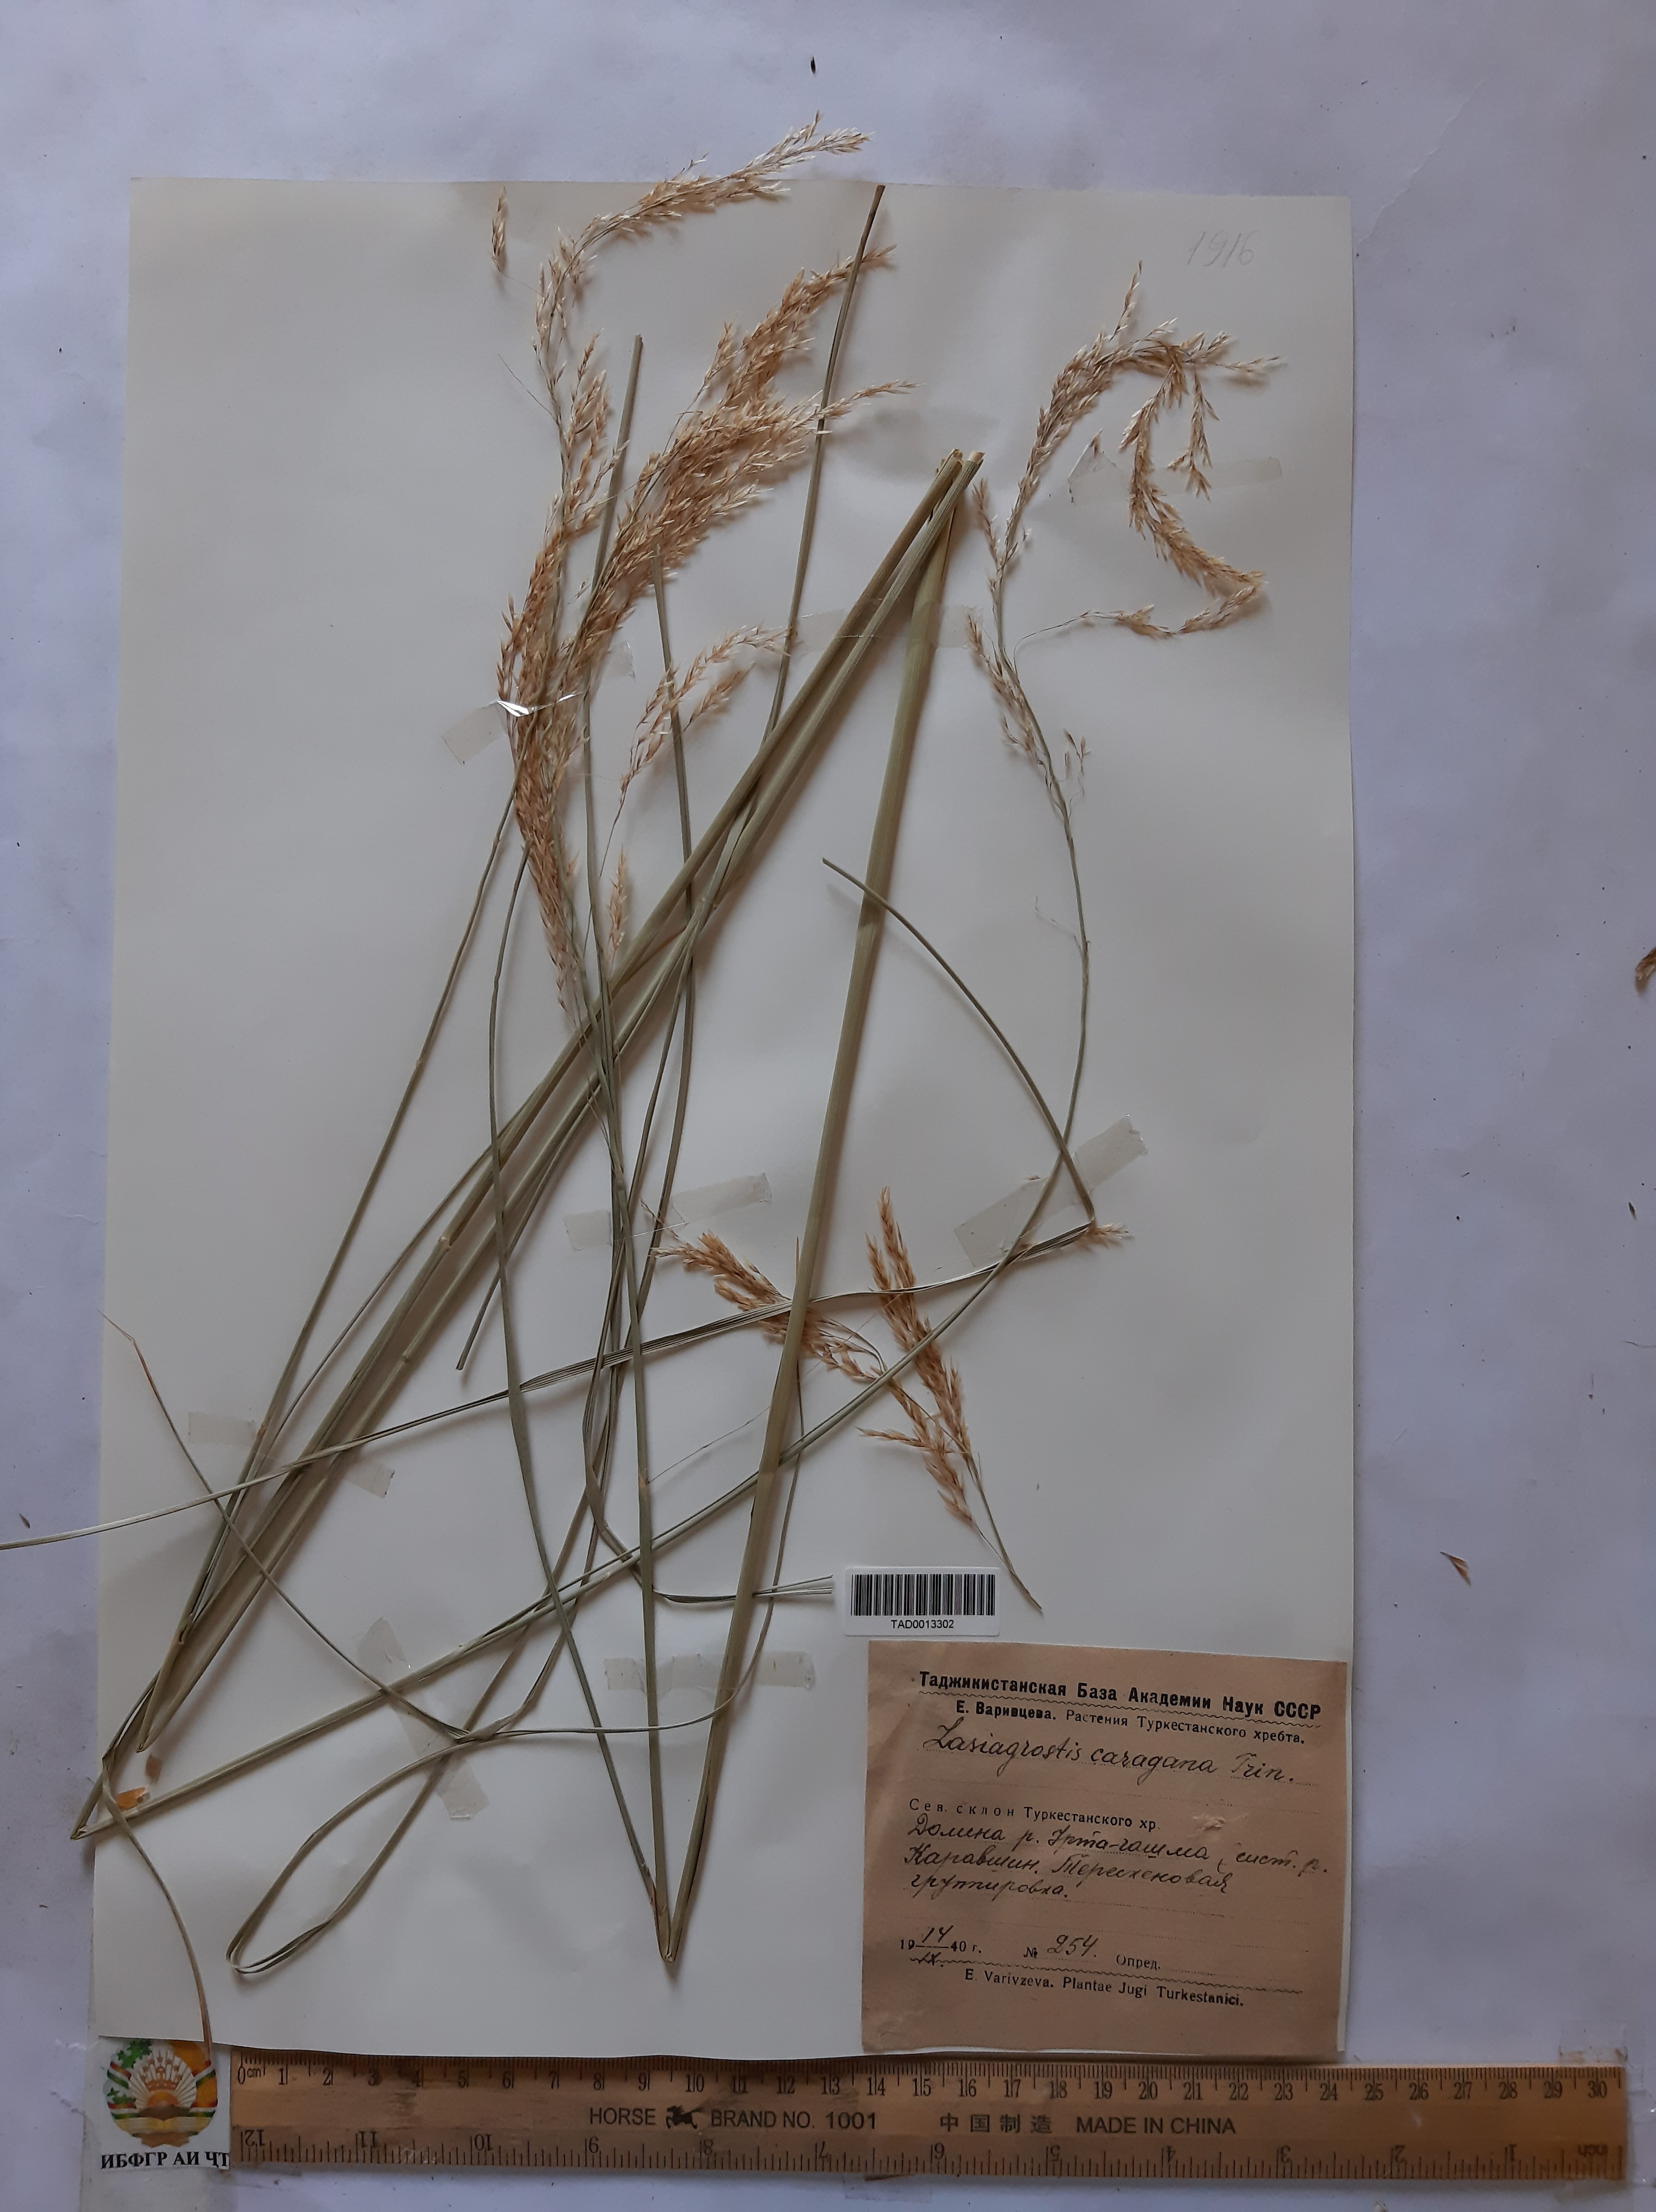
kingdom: Plantae
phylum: Tracheophyta
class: Liliopsida
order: Poales
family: Poaceae
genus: Stipa
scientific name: Stipa conferta
